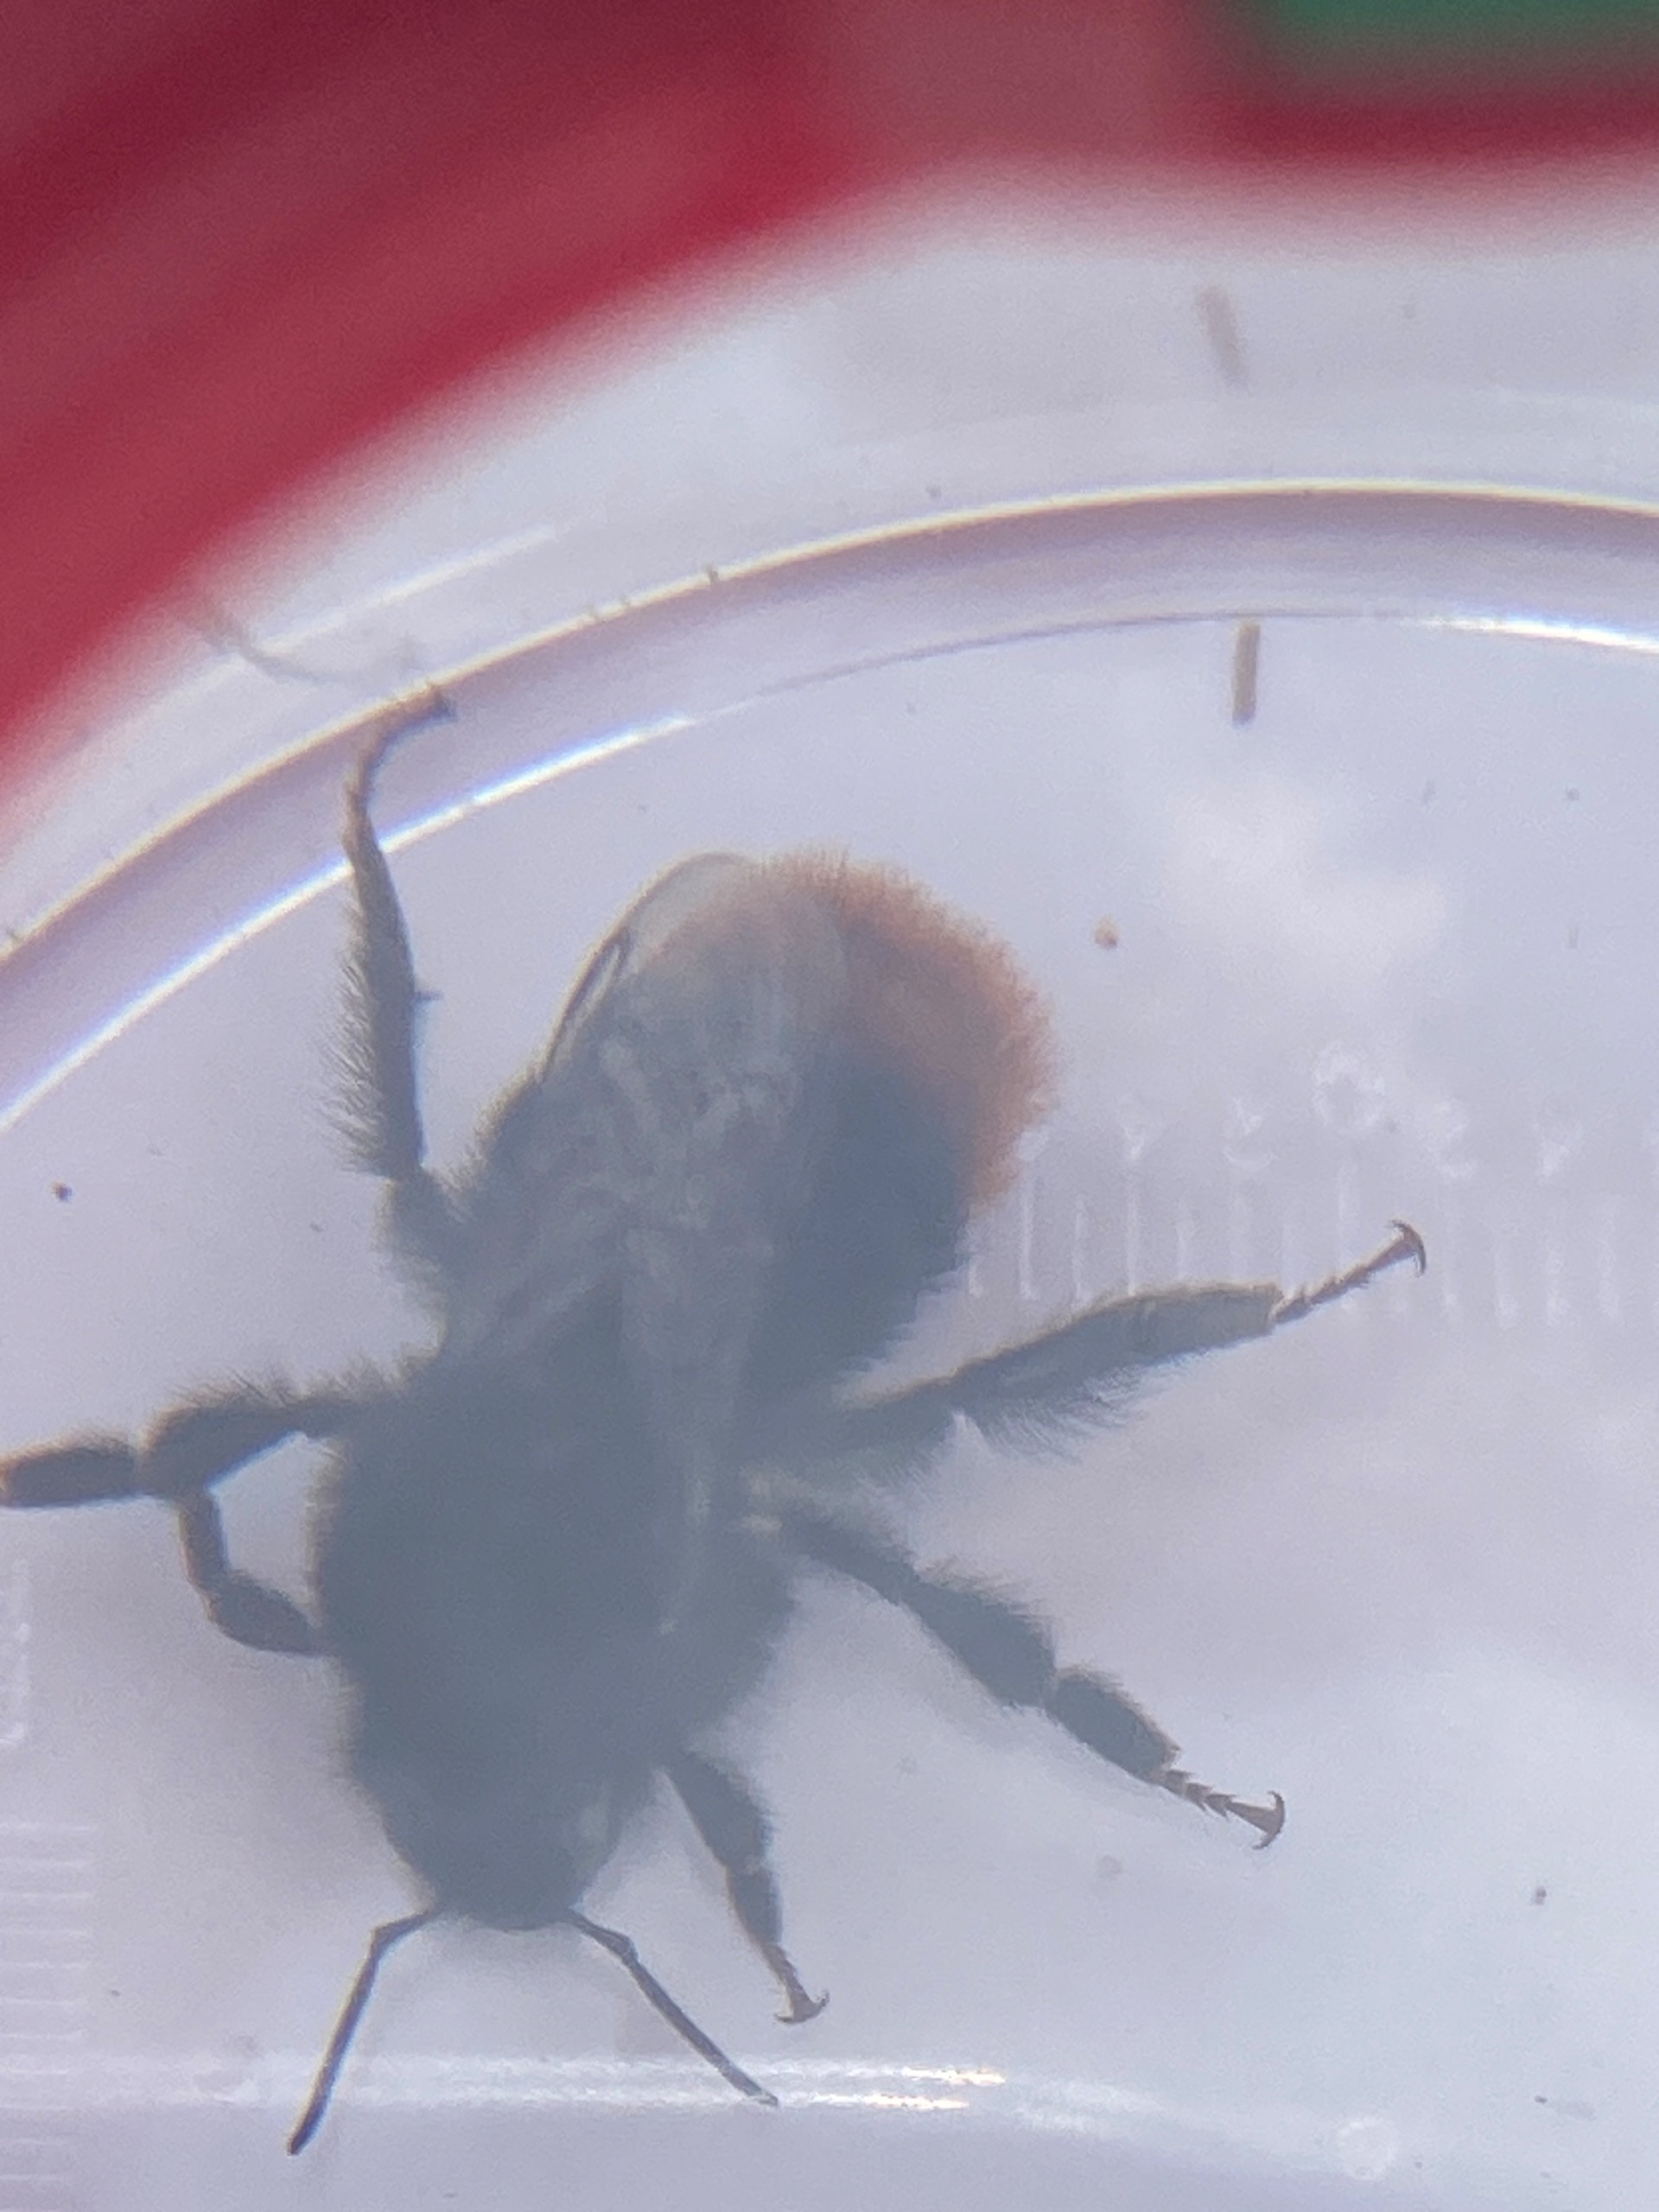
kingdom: Animalia
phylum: Arthropoda
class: Insecta
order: Hymenoptera
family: Apidae
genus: Bombus
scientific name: Bombus lapidarius
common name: Stenhumle
